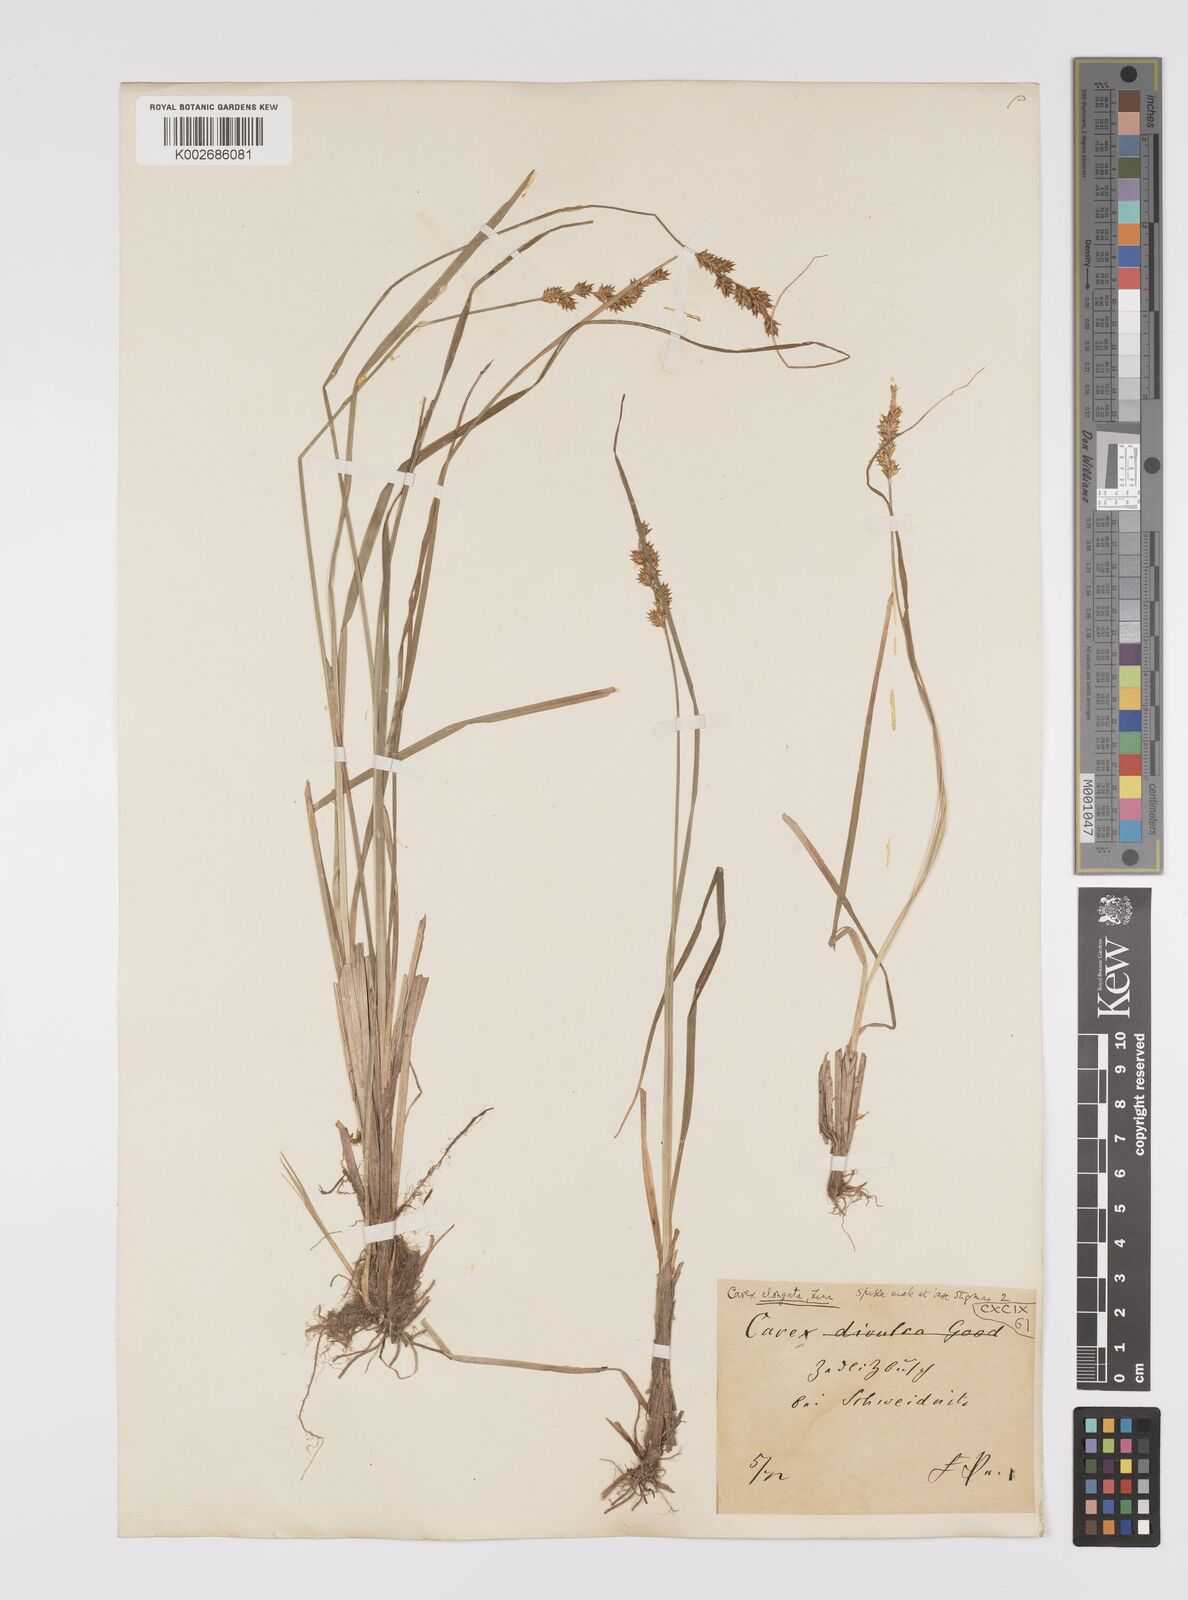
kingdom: Plantae
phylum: Tracheophyta
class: Liliopsida
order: Poales
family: Cyperaceae
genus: Carex
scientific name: Carex elongata
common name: Elongated sedge
